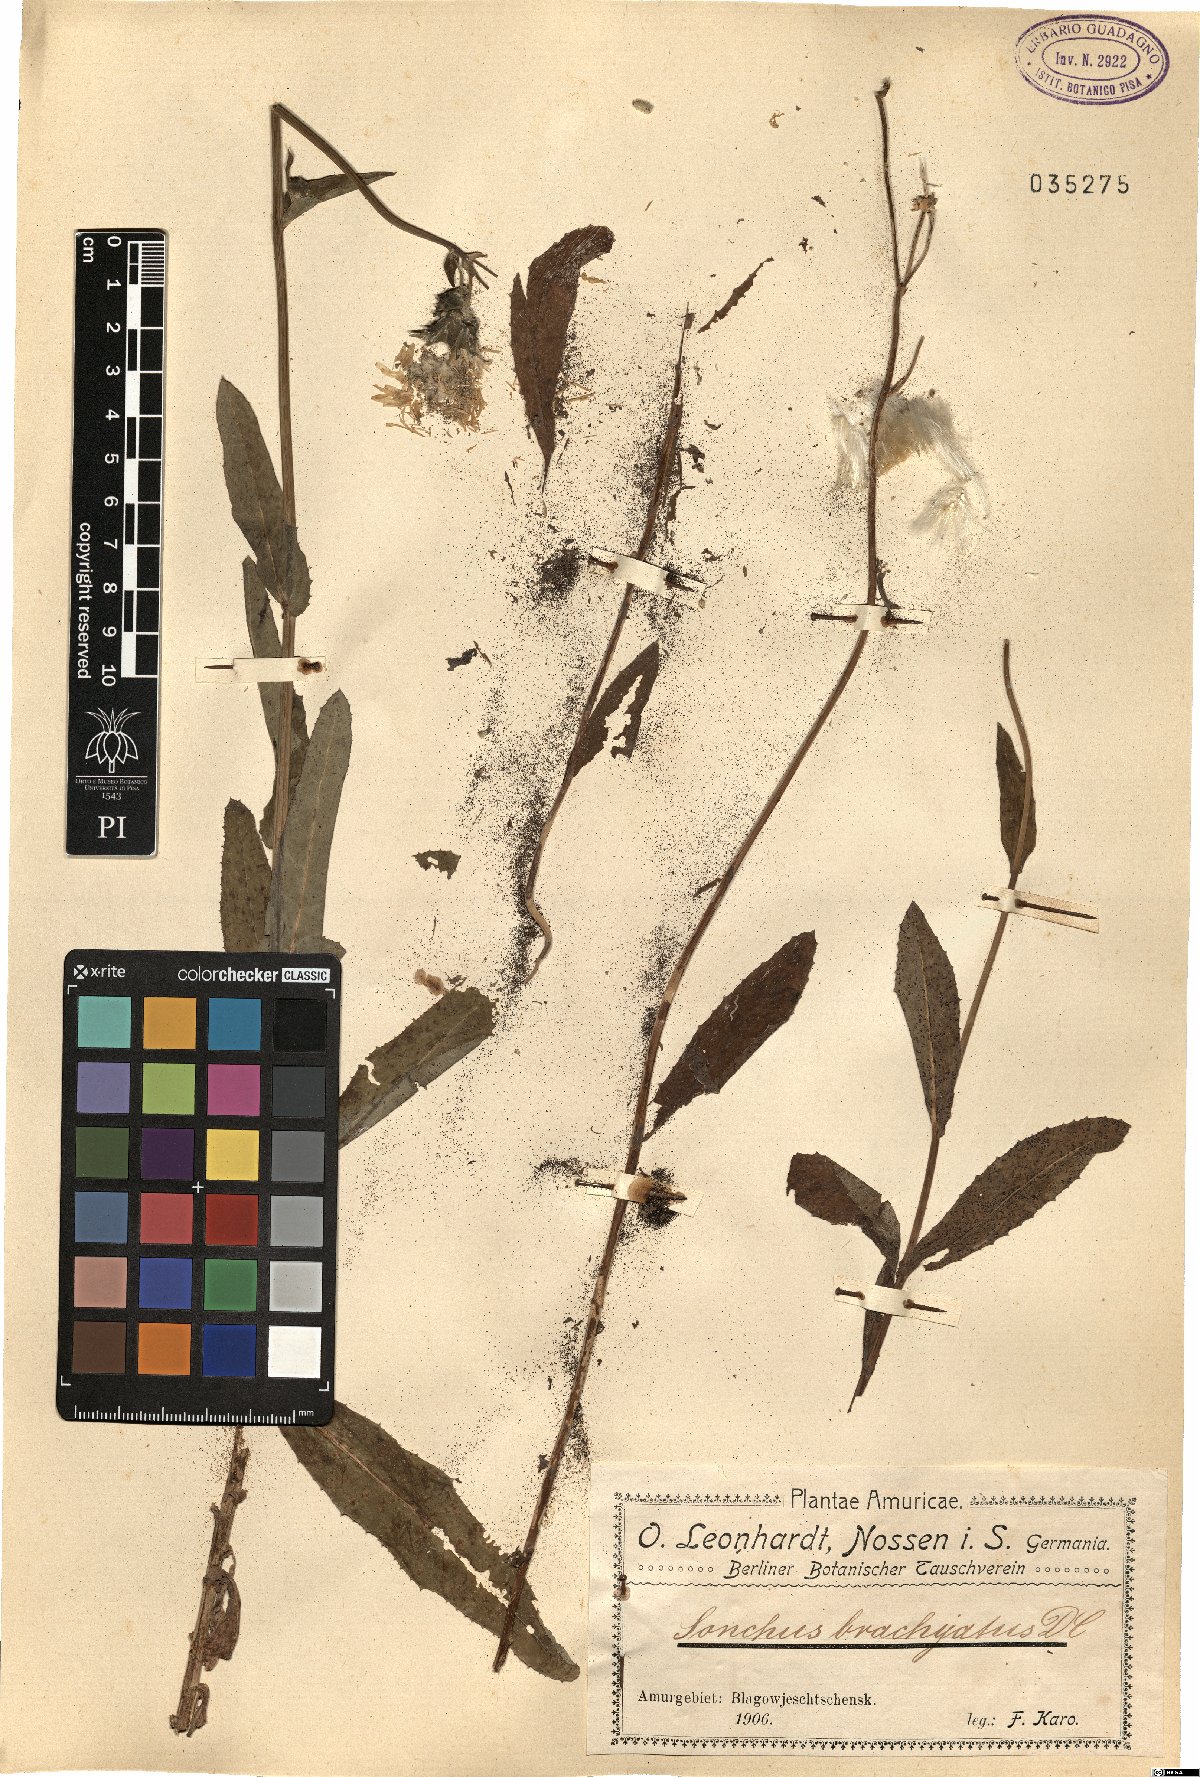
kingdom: Plantae
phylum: Tracheophyta
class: Magnoliopsida
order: Asterales
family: Asteraceae
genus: Sonchus
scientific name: Sonchus brachyotus
